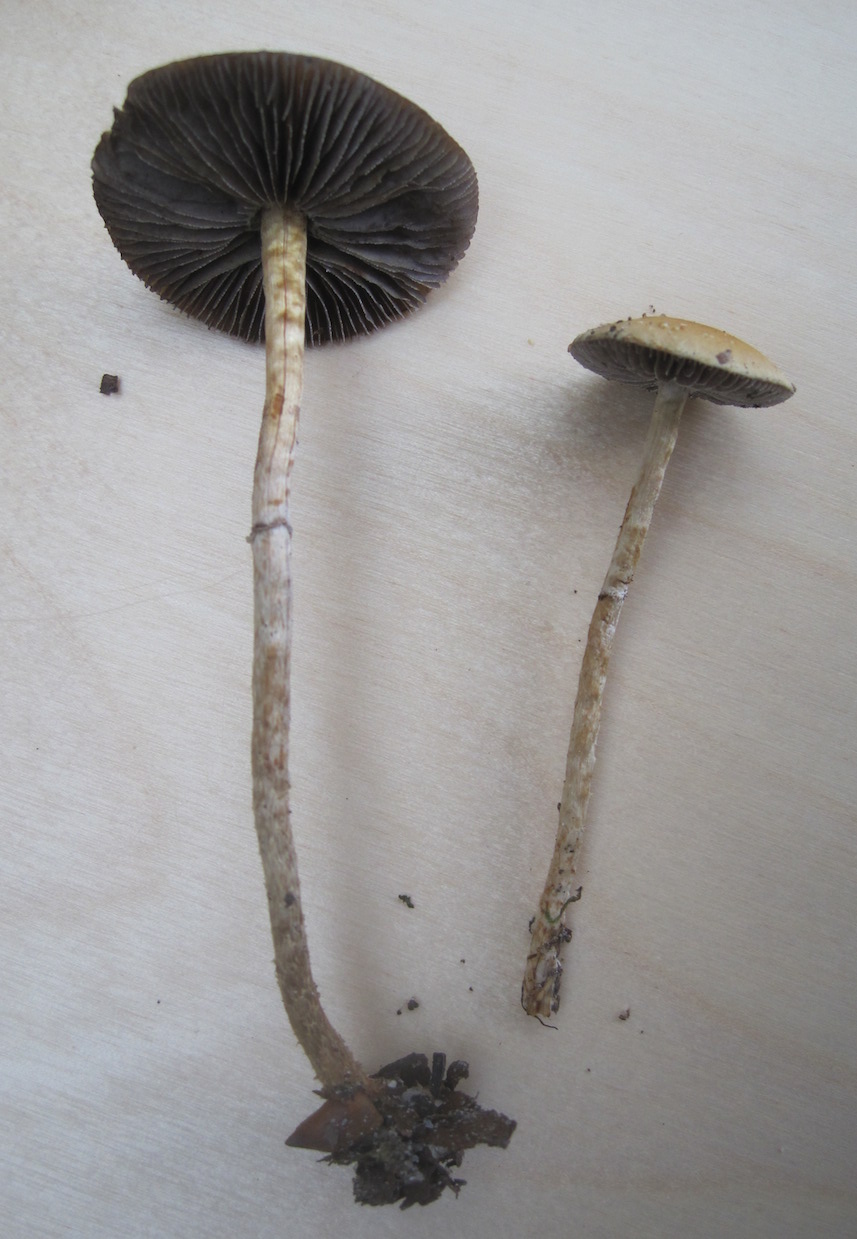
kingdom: Fungi
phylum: Basidiomycota
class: Agaricomycetes
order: Agaricales
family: Strophariaceae
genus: Leratiomyces
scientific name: Leratiomyces squamosus
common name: skællet bredblad
